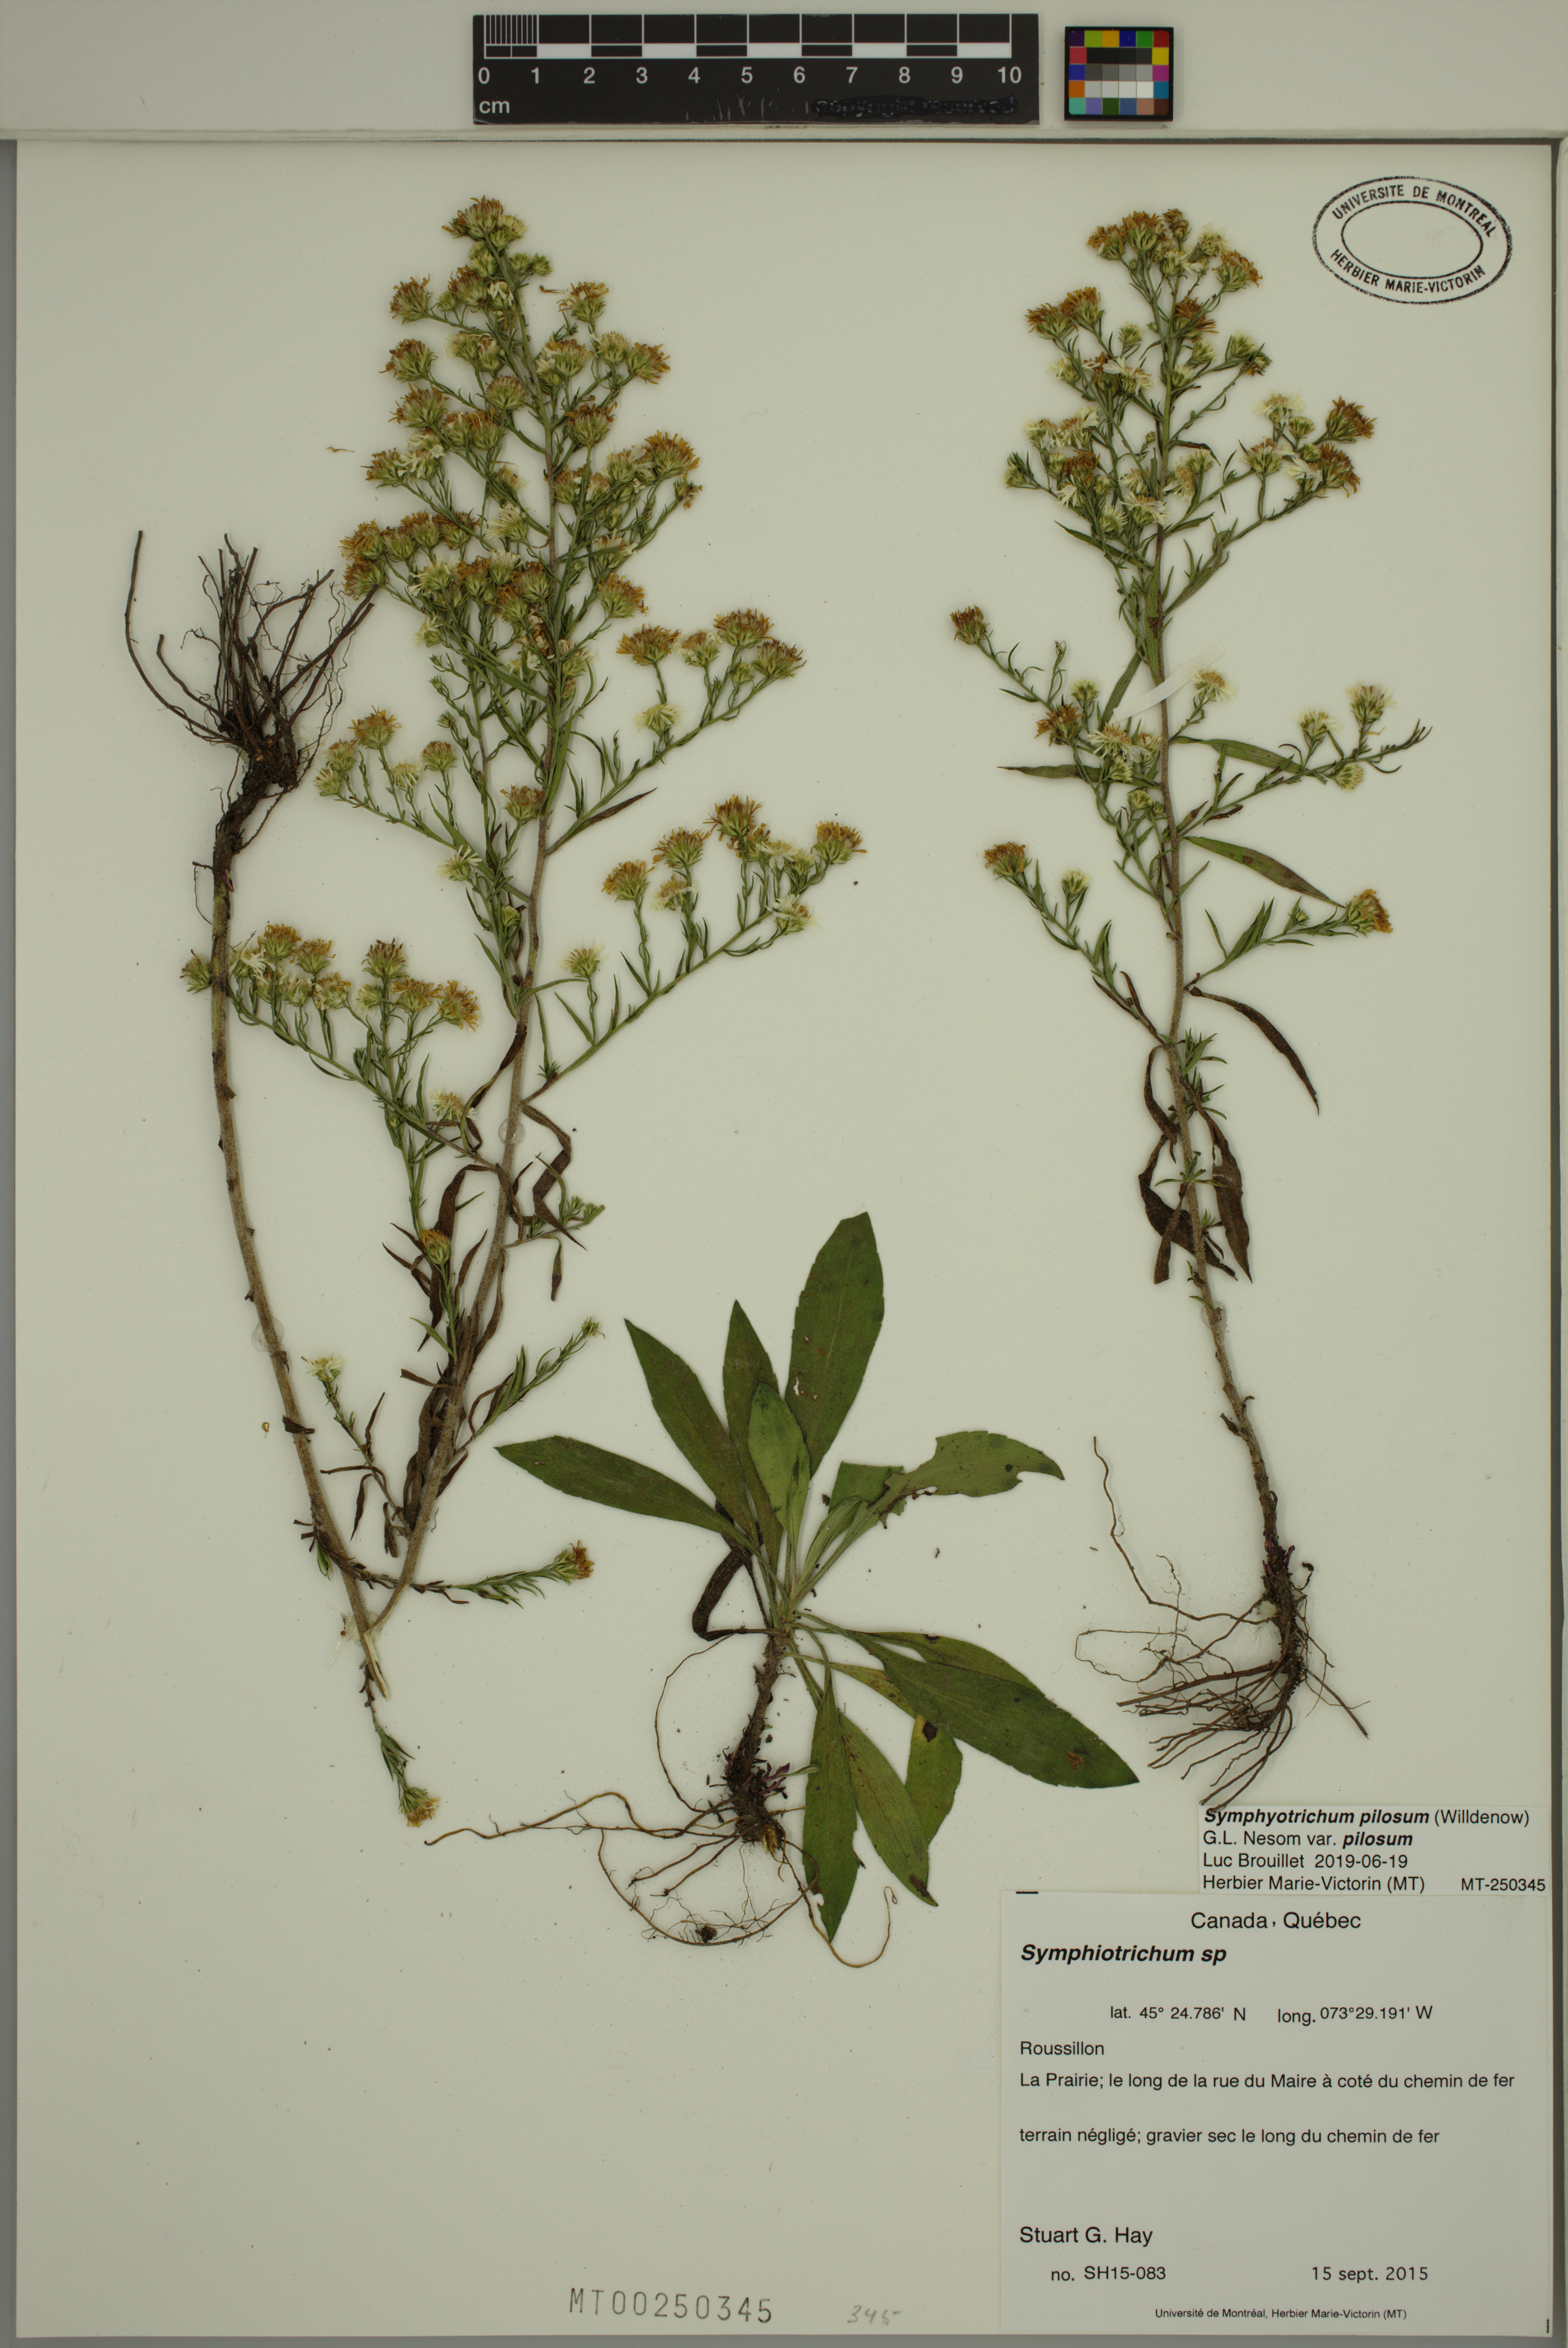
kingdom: Plantae
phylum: Tracheophyta
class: Magnoliopsida
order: Asterales
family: Asteraceae
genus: Symphyotrichum
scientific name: Symphyotrichum pilosum
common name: Awl aster
